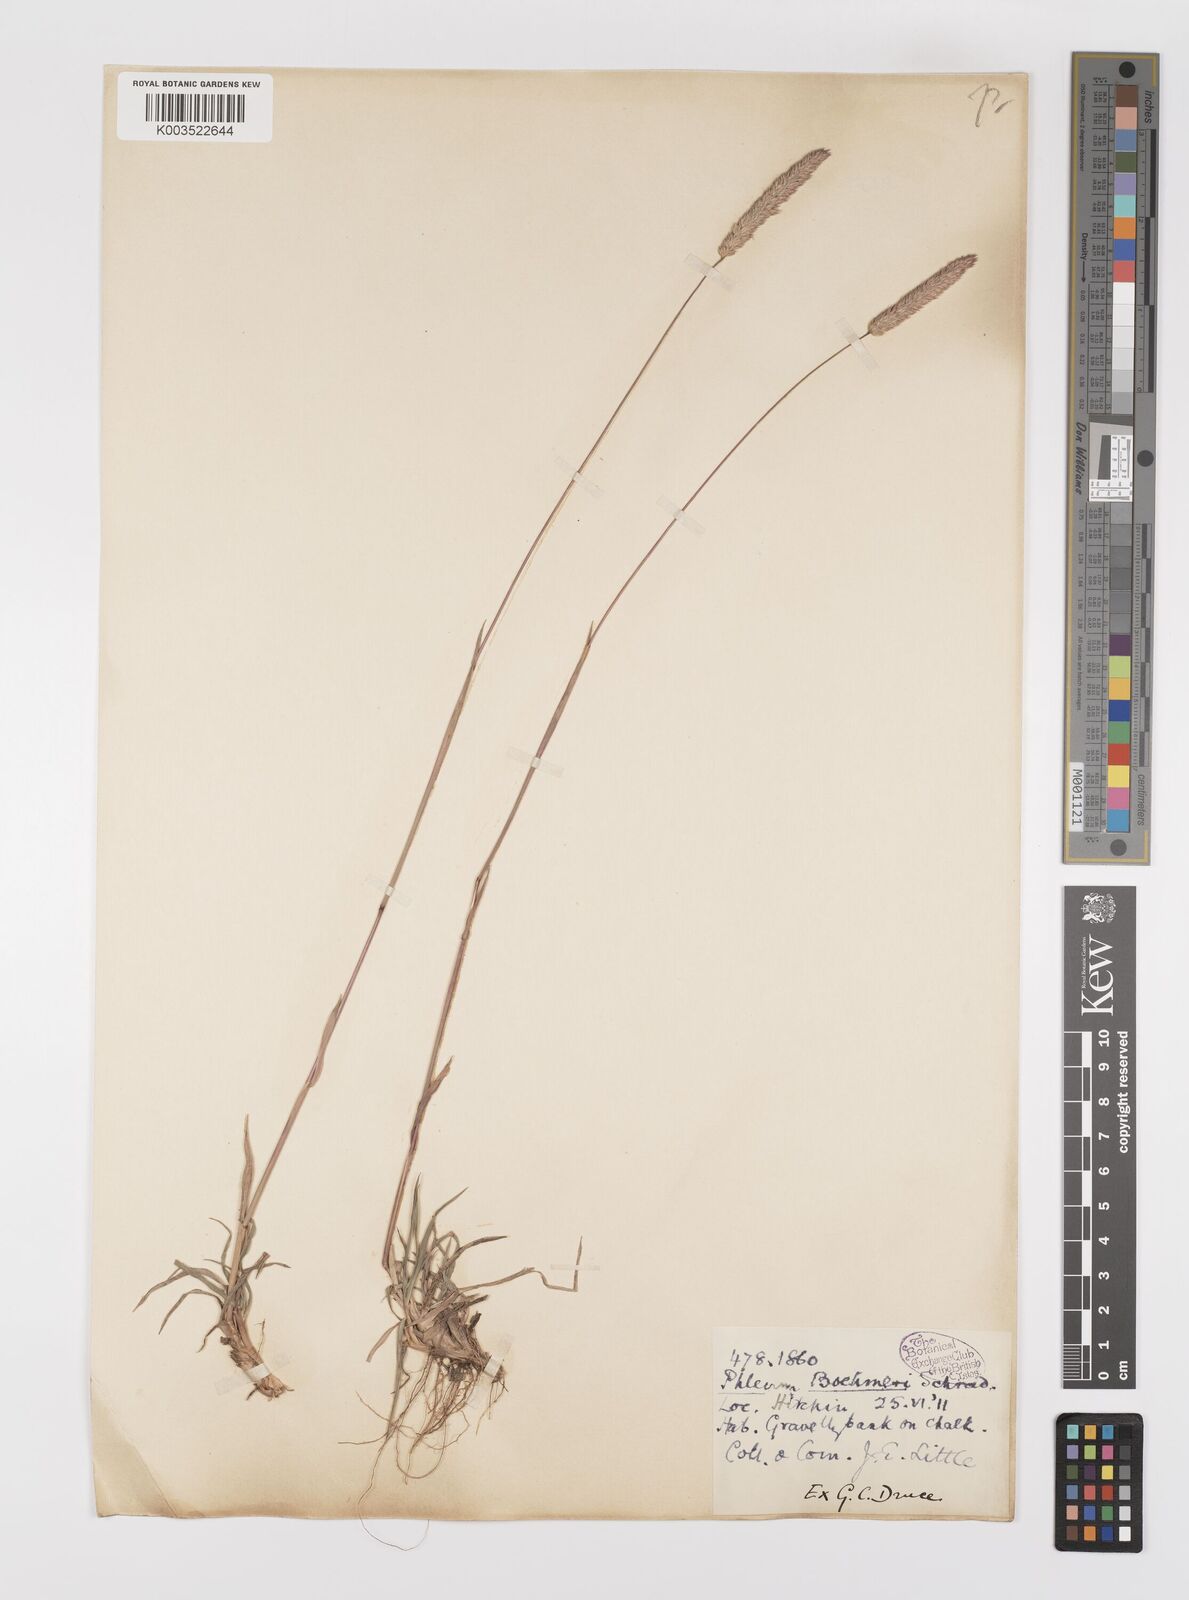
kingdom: Plantae
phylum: Tracheophyta
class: Liliopsida
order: Poales
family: Poaceae
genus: Phleum
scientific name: Phleum phleoides
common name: Purple-stem cat's-tail
